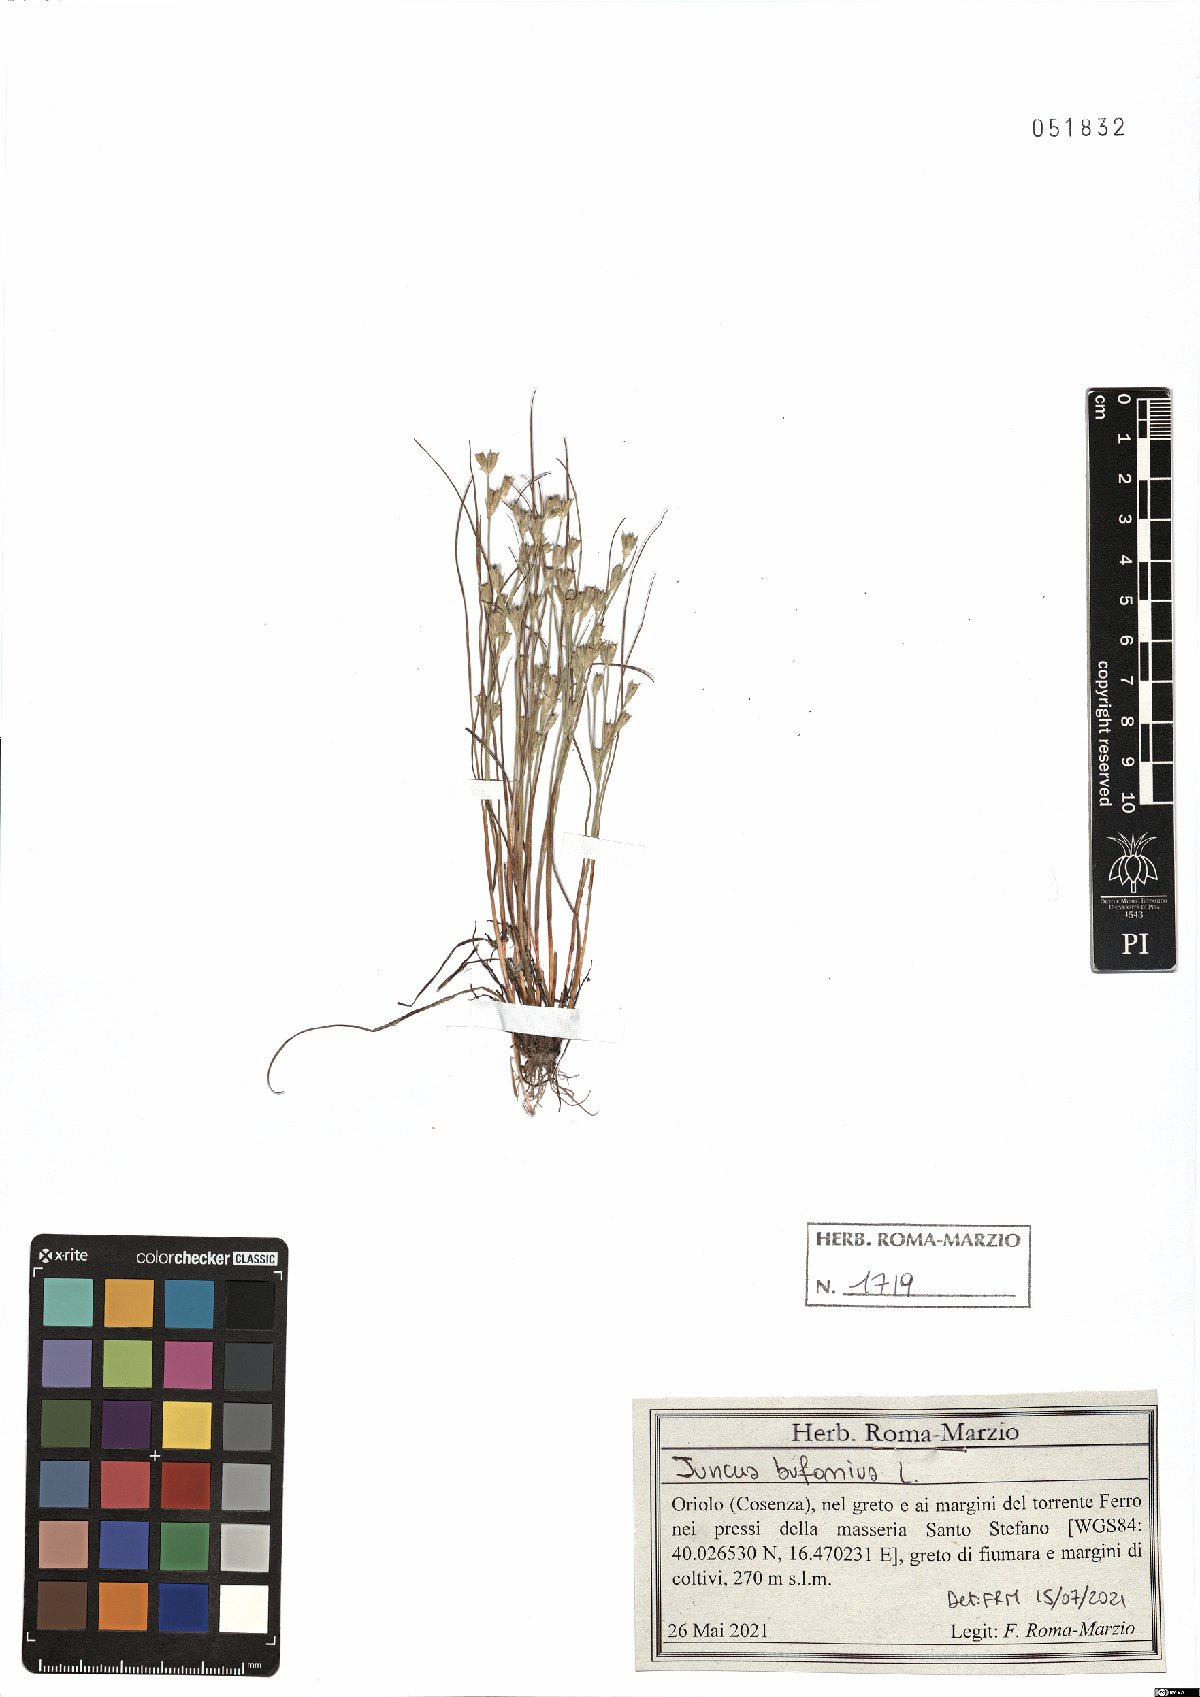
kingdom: Plantae
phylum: Tracheophyta
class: Liliopsida
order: Poales
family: Juncaceae
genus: Juncus
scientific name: Juncus bufonius
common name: Toad rush
